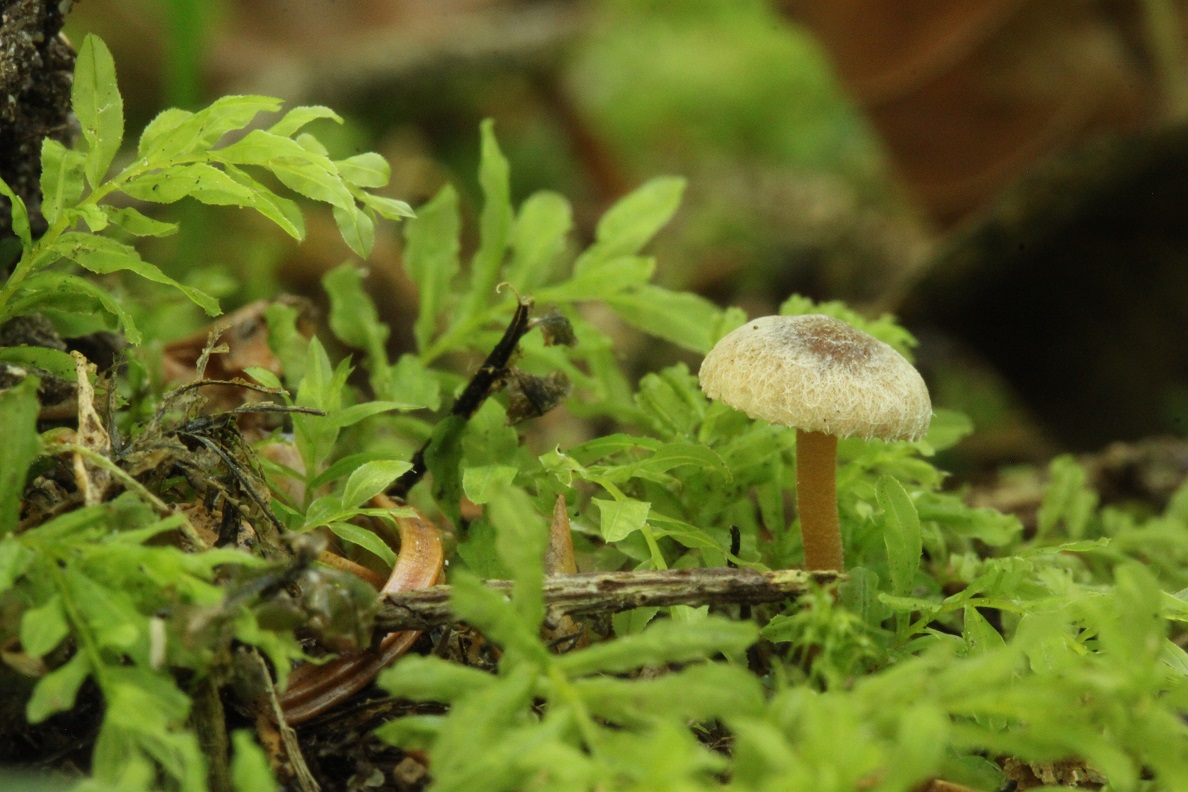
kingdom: Fungi
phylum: Basidiomycota
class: Agaricomycetes
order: Agaricales
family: Inocybaceae
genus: Inocybe
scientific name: Inocybe petiginosa
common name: liden trævlhat
